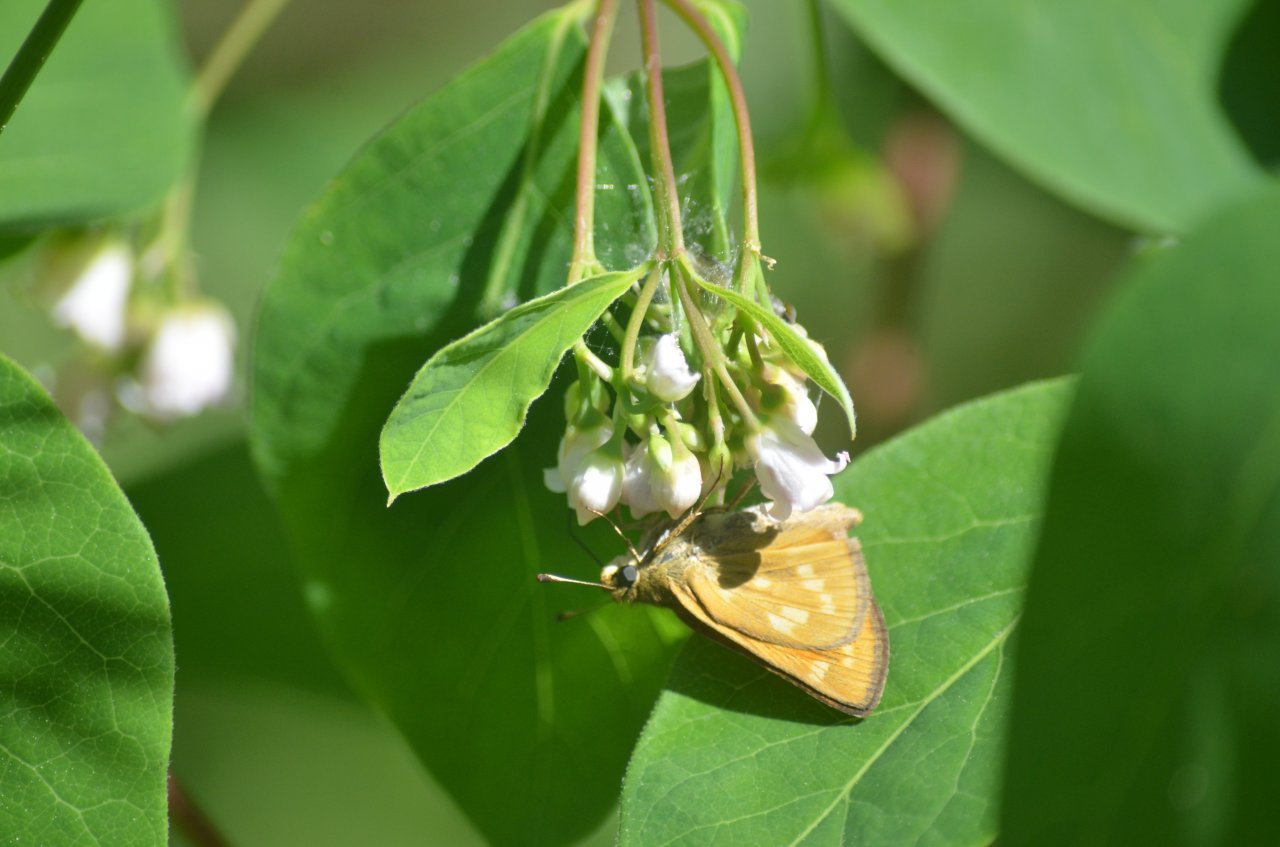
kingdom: Animalia
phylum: Arthropoda
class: Insecta
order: Lepidoptera
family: Hesperiidae
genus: Hesperia
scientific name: Hesperia sassacus
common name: Sassacus Skipper
